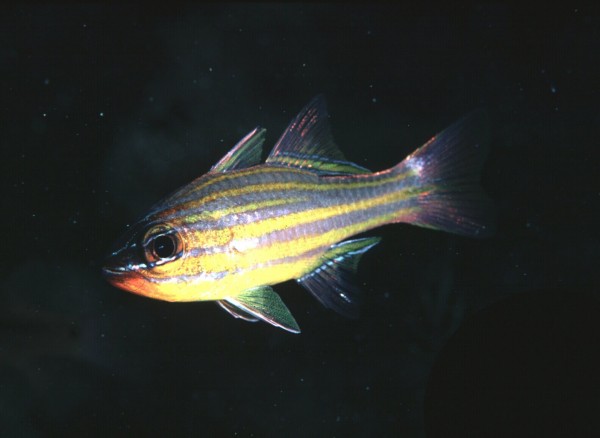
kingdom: Animalia
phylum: Chordata
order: Perciformes
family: Apogonidae
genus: Ostorhinchus
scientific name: Ostorhinchus cyanosoma
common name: Yellow-striped cardinalfish
